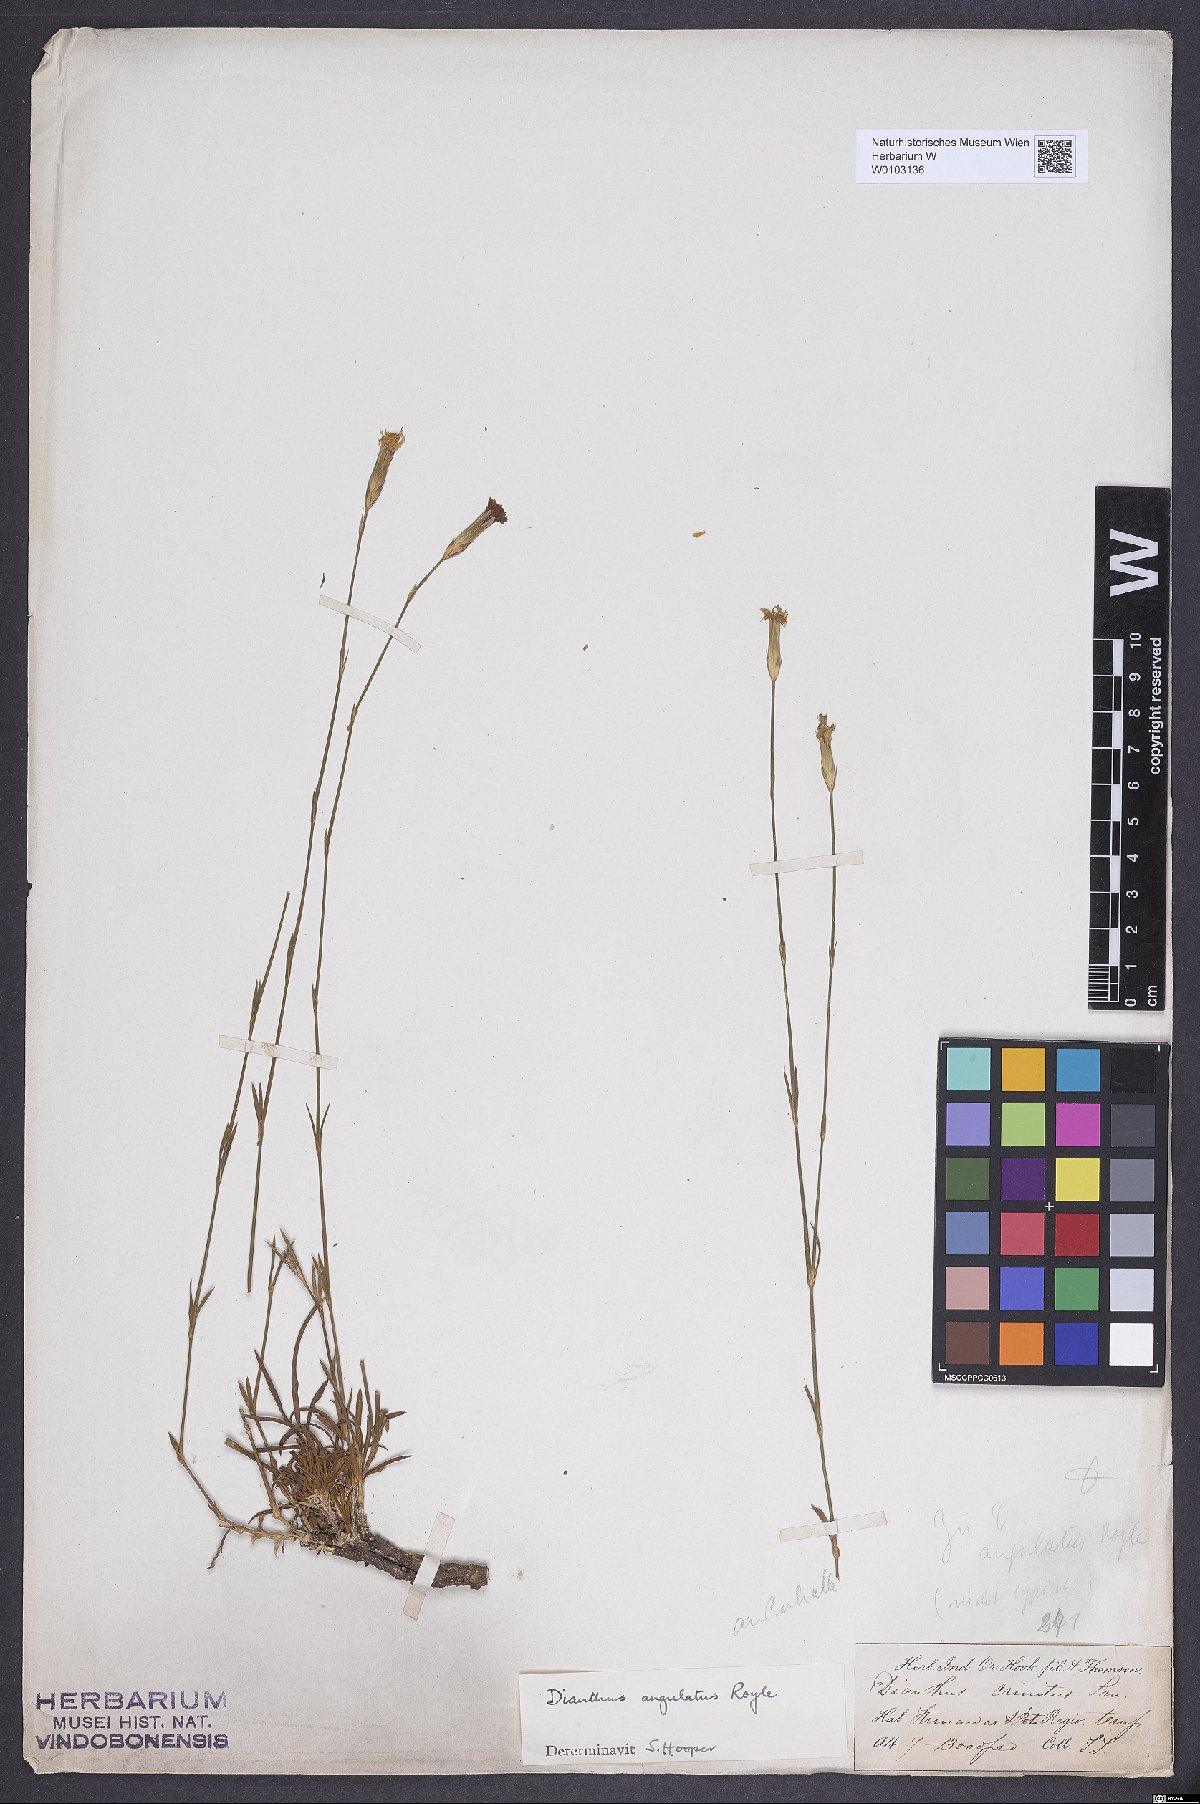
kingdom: Plantae
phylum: Tracheophyta
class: Magnoliopsida
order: Caryophyllales
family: Caryophyllaceae
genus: Dianthus
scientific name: Dianthus angulatus
